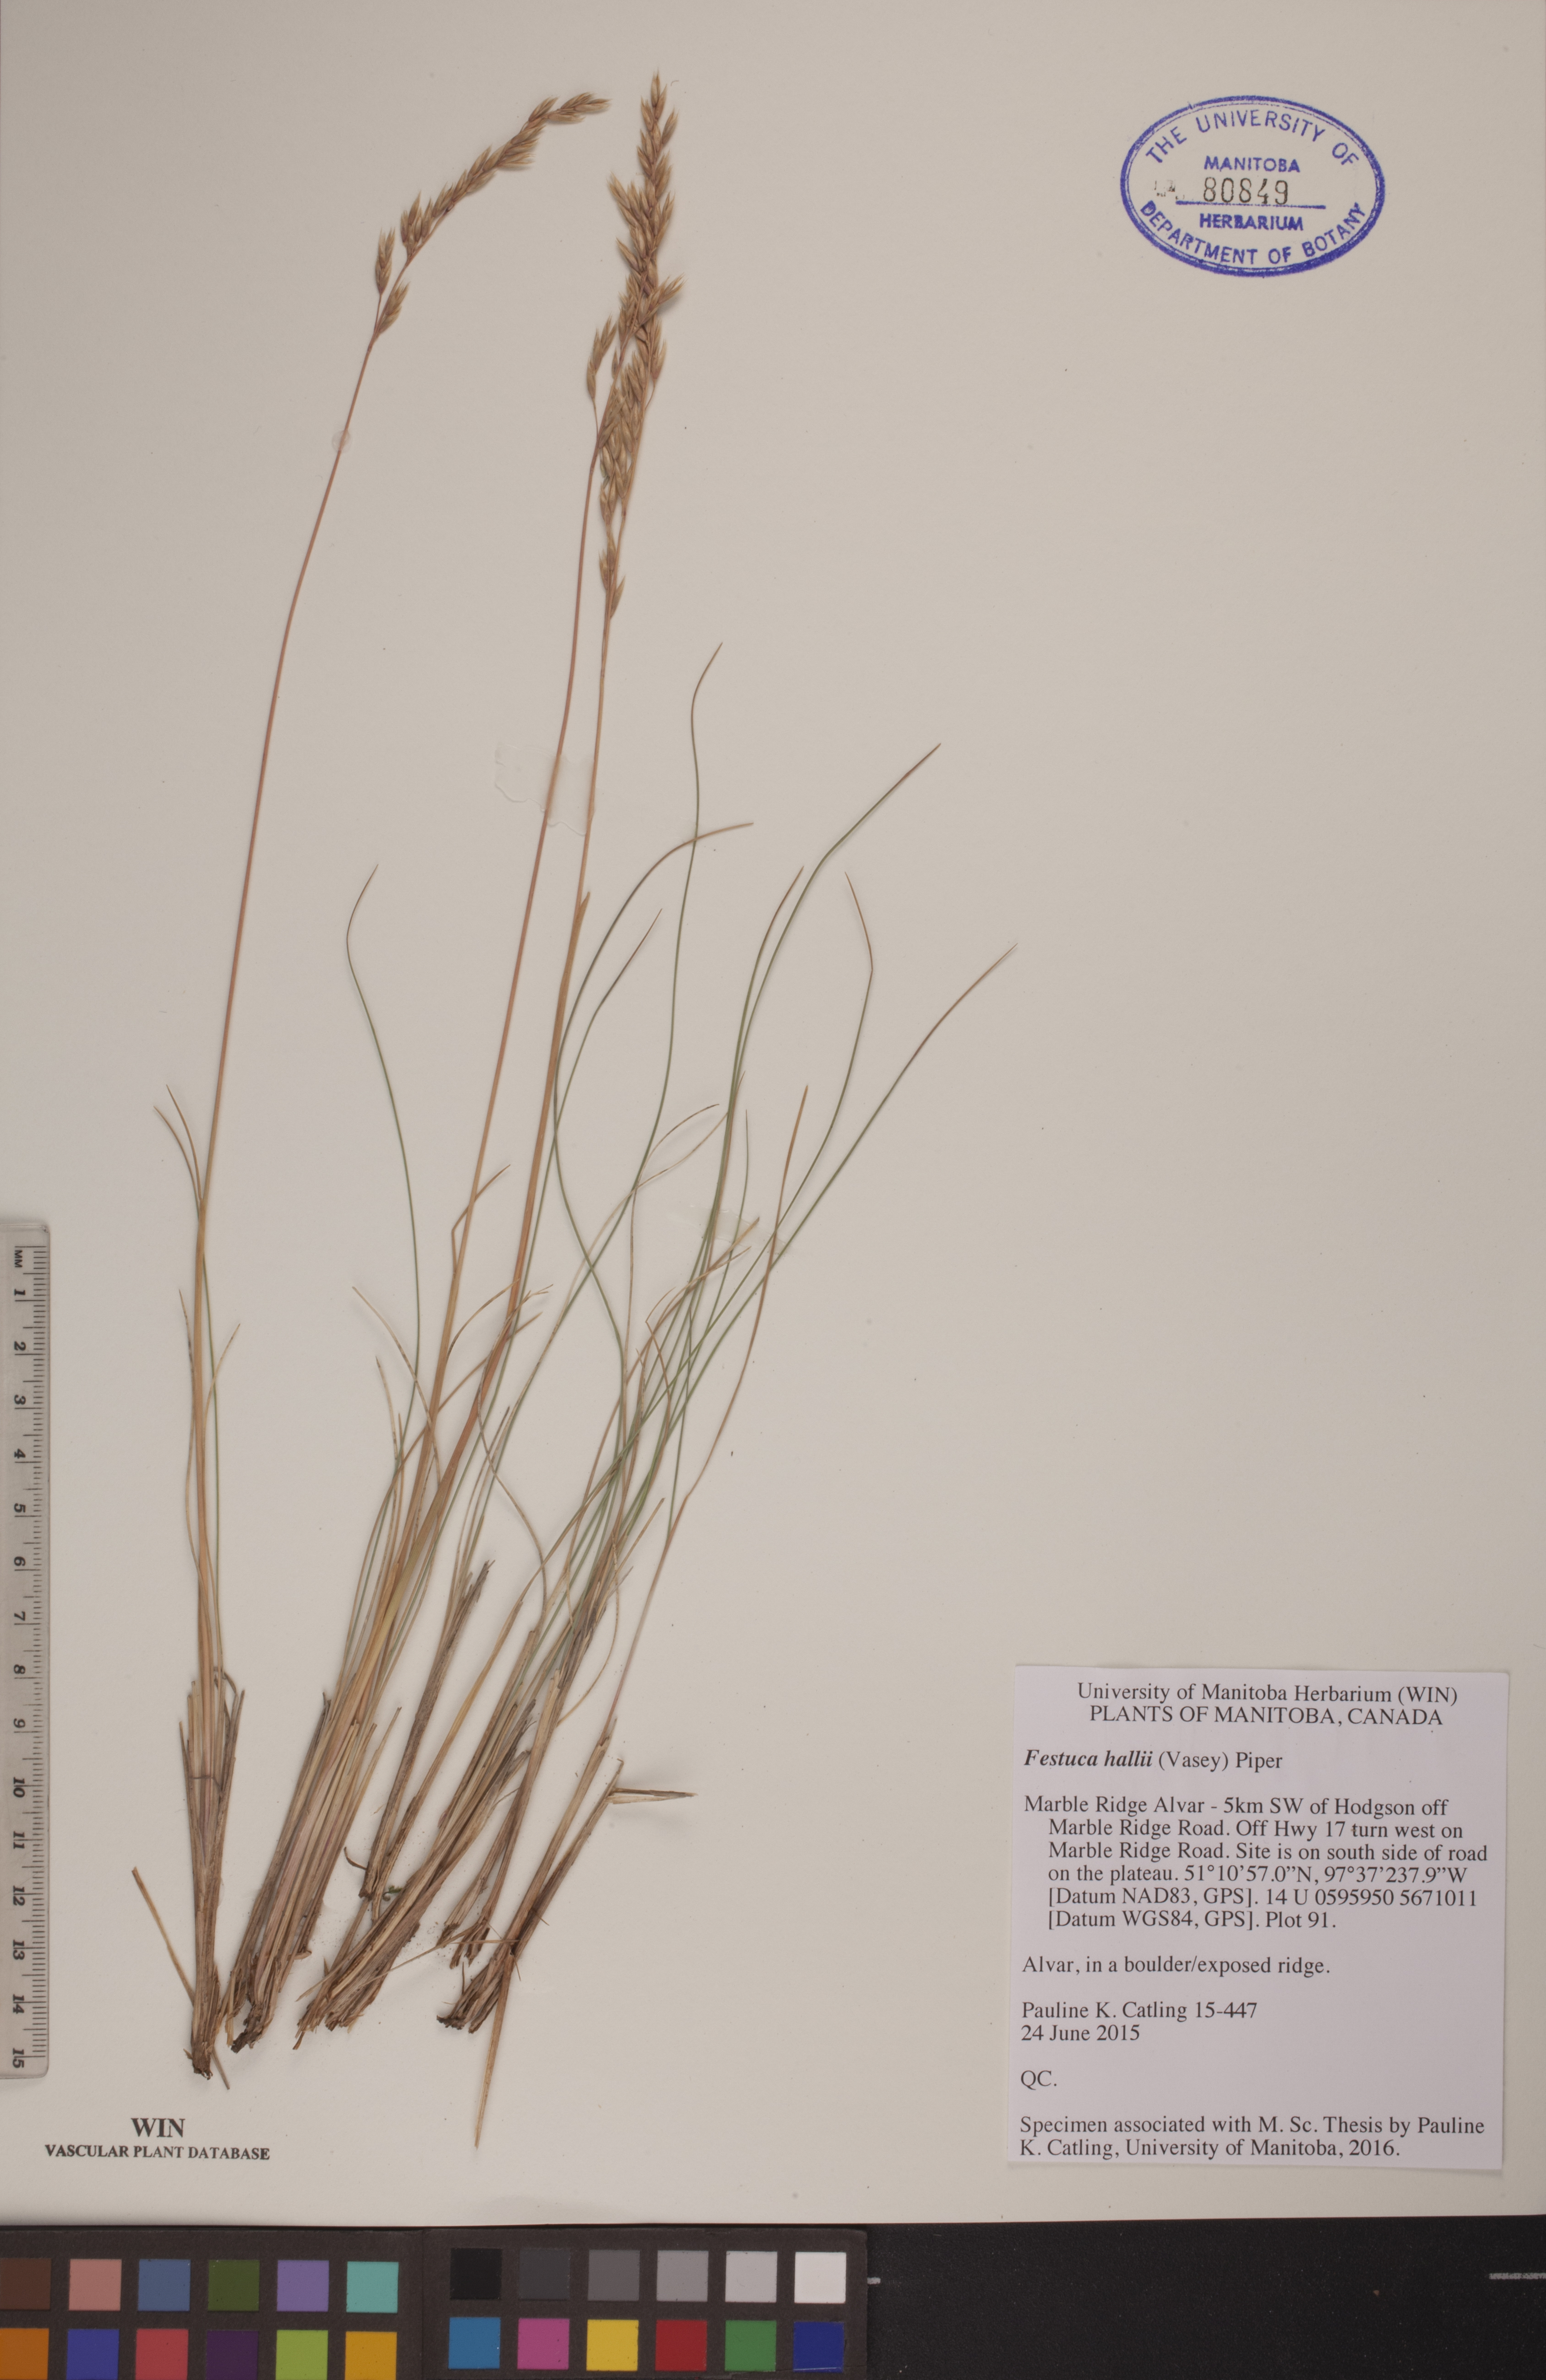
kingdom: Plantae
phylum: Tracheophyta
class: Liliopsida
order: Poales
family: Poaceae
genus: Festuca
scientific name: Festuca hallii
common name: Hall's fescue
